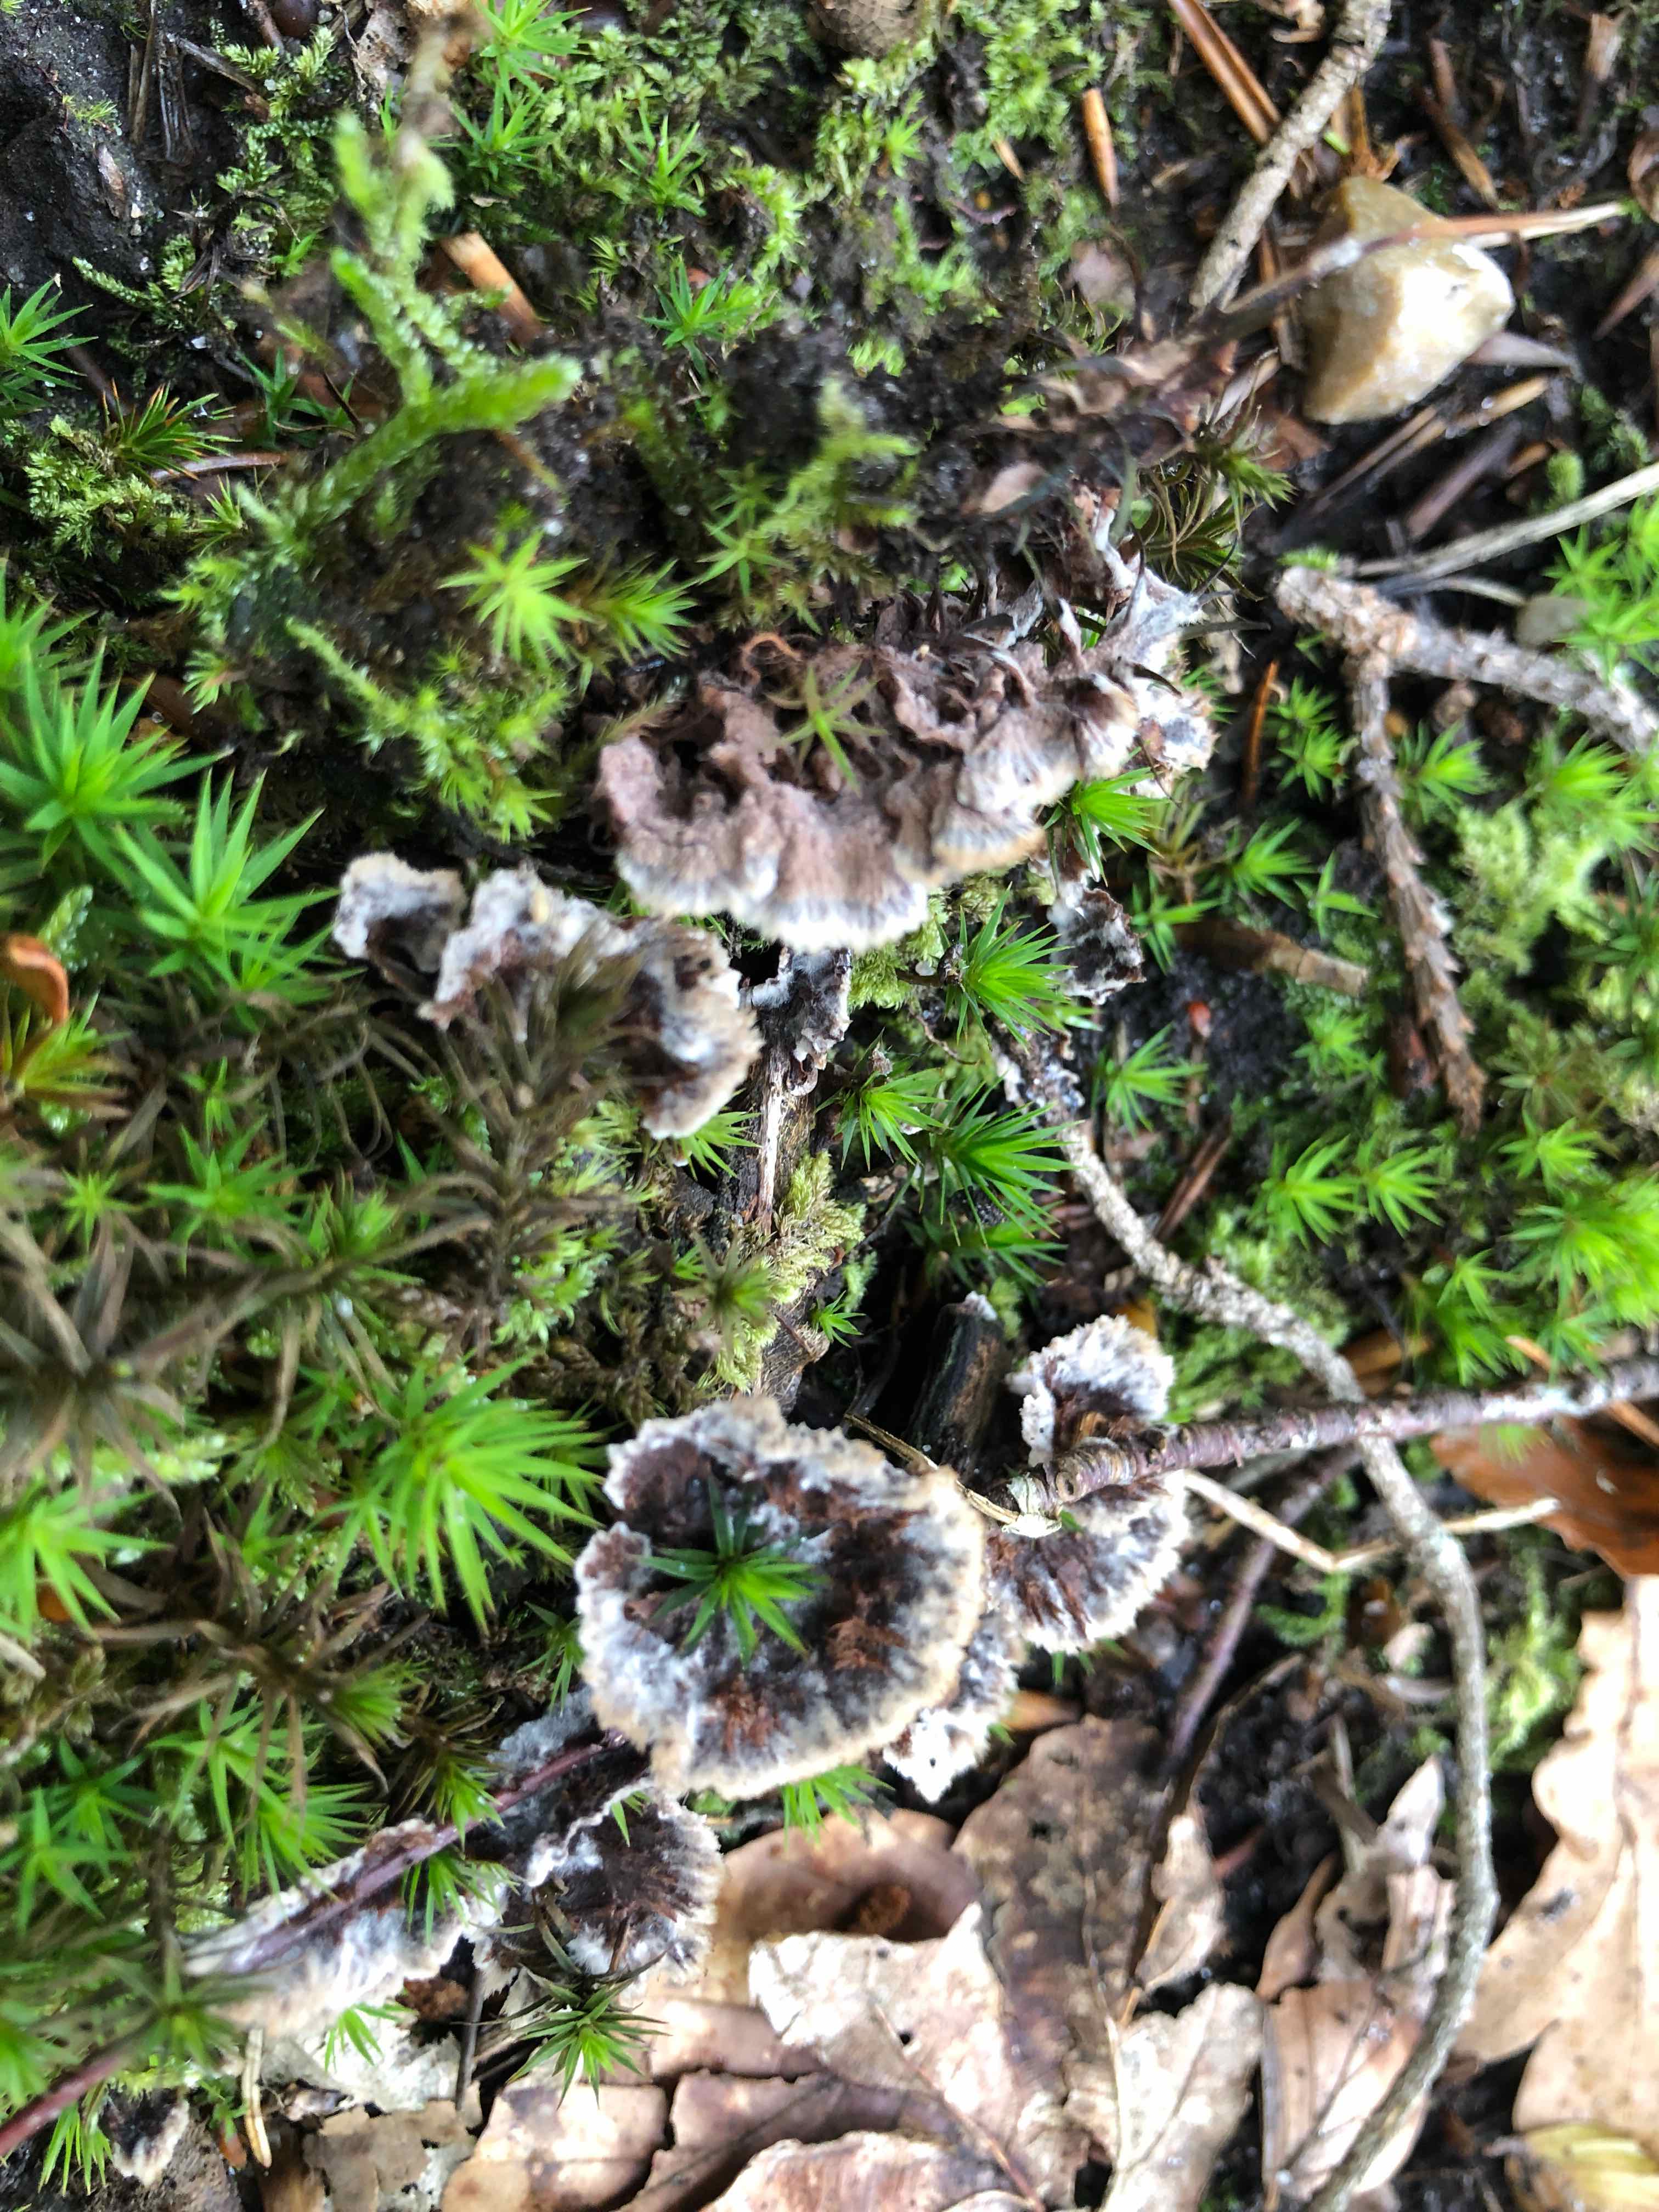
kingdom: Fungi
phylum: Basidiomycota
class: Agaricomycetes
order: Thelephorales
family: Thelephoraceae
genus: Thelephora
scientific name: Thelephora terrestris
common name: fliget frynsesvamp
